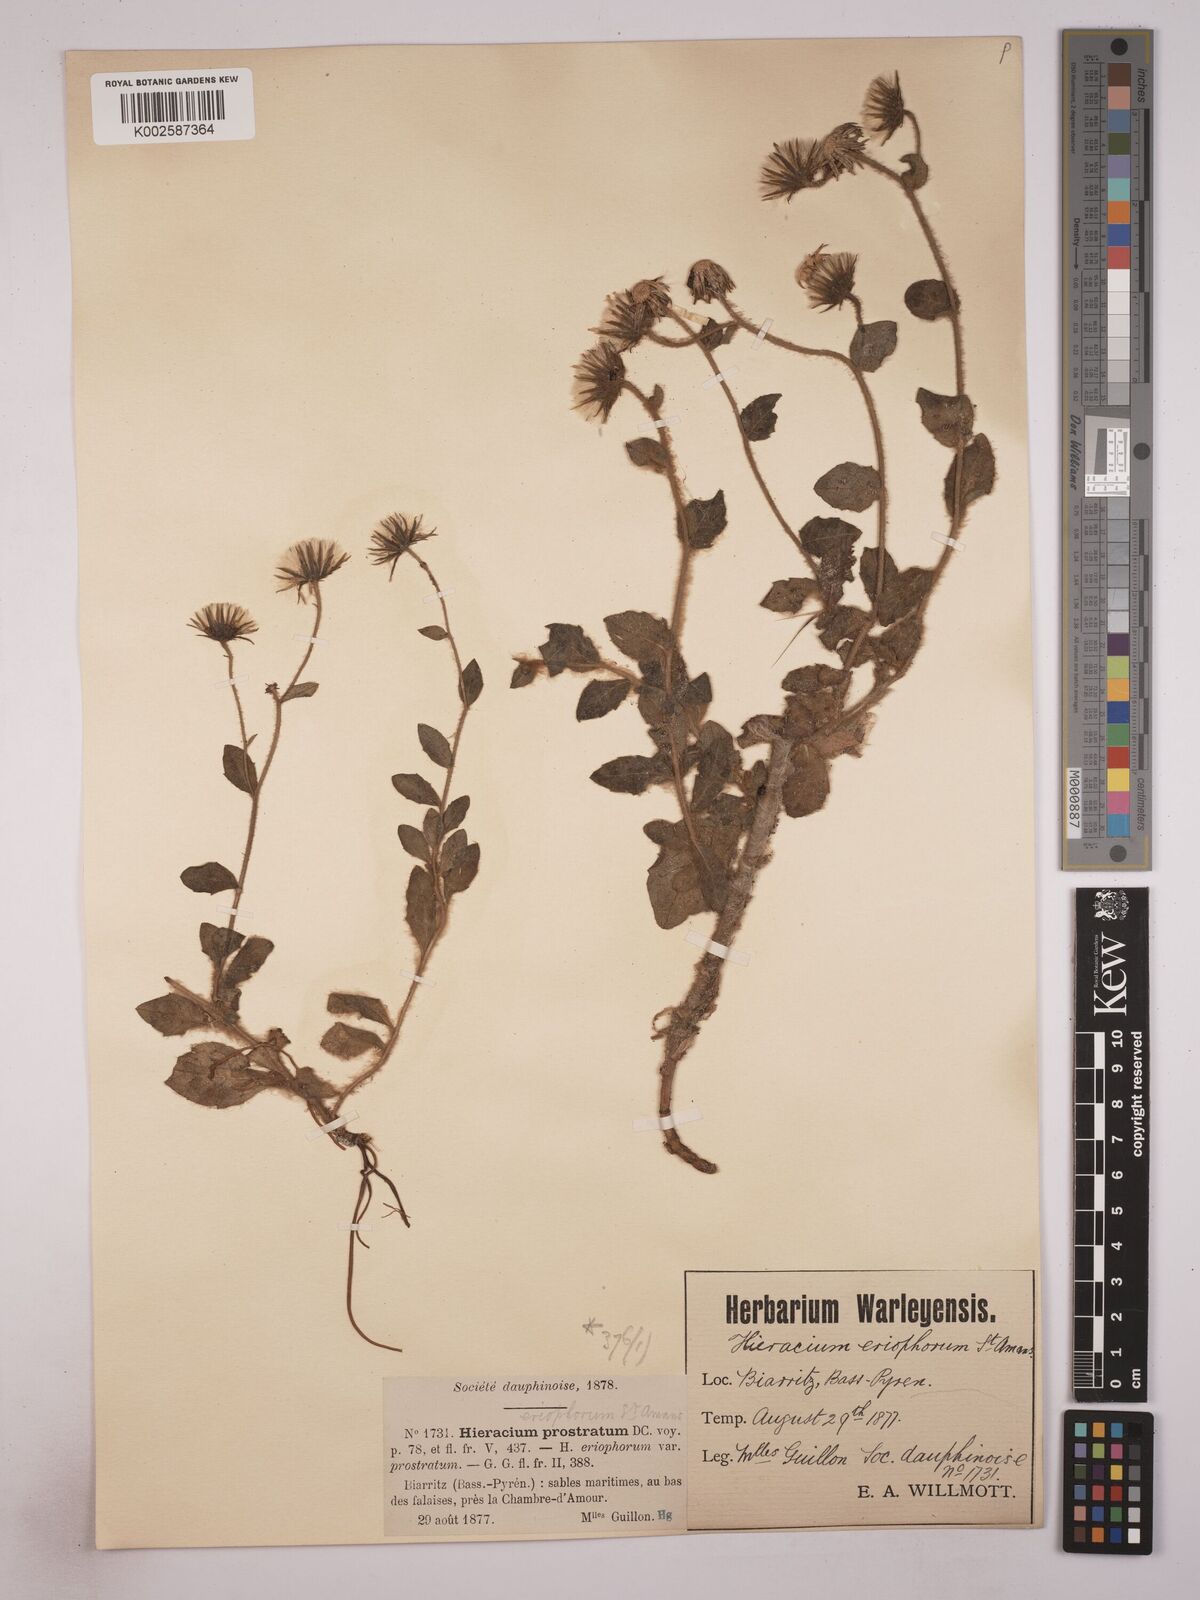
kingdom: Plantae
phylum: Tracheophyta
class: Magnoliopsida
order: Asterales
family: Asteraceae
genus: Hieracium
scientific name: Hieracium prostratum
